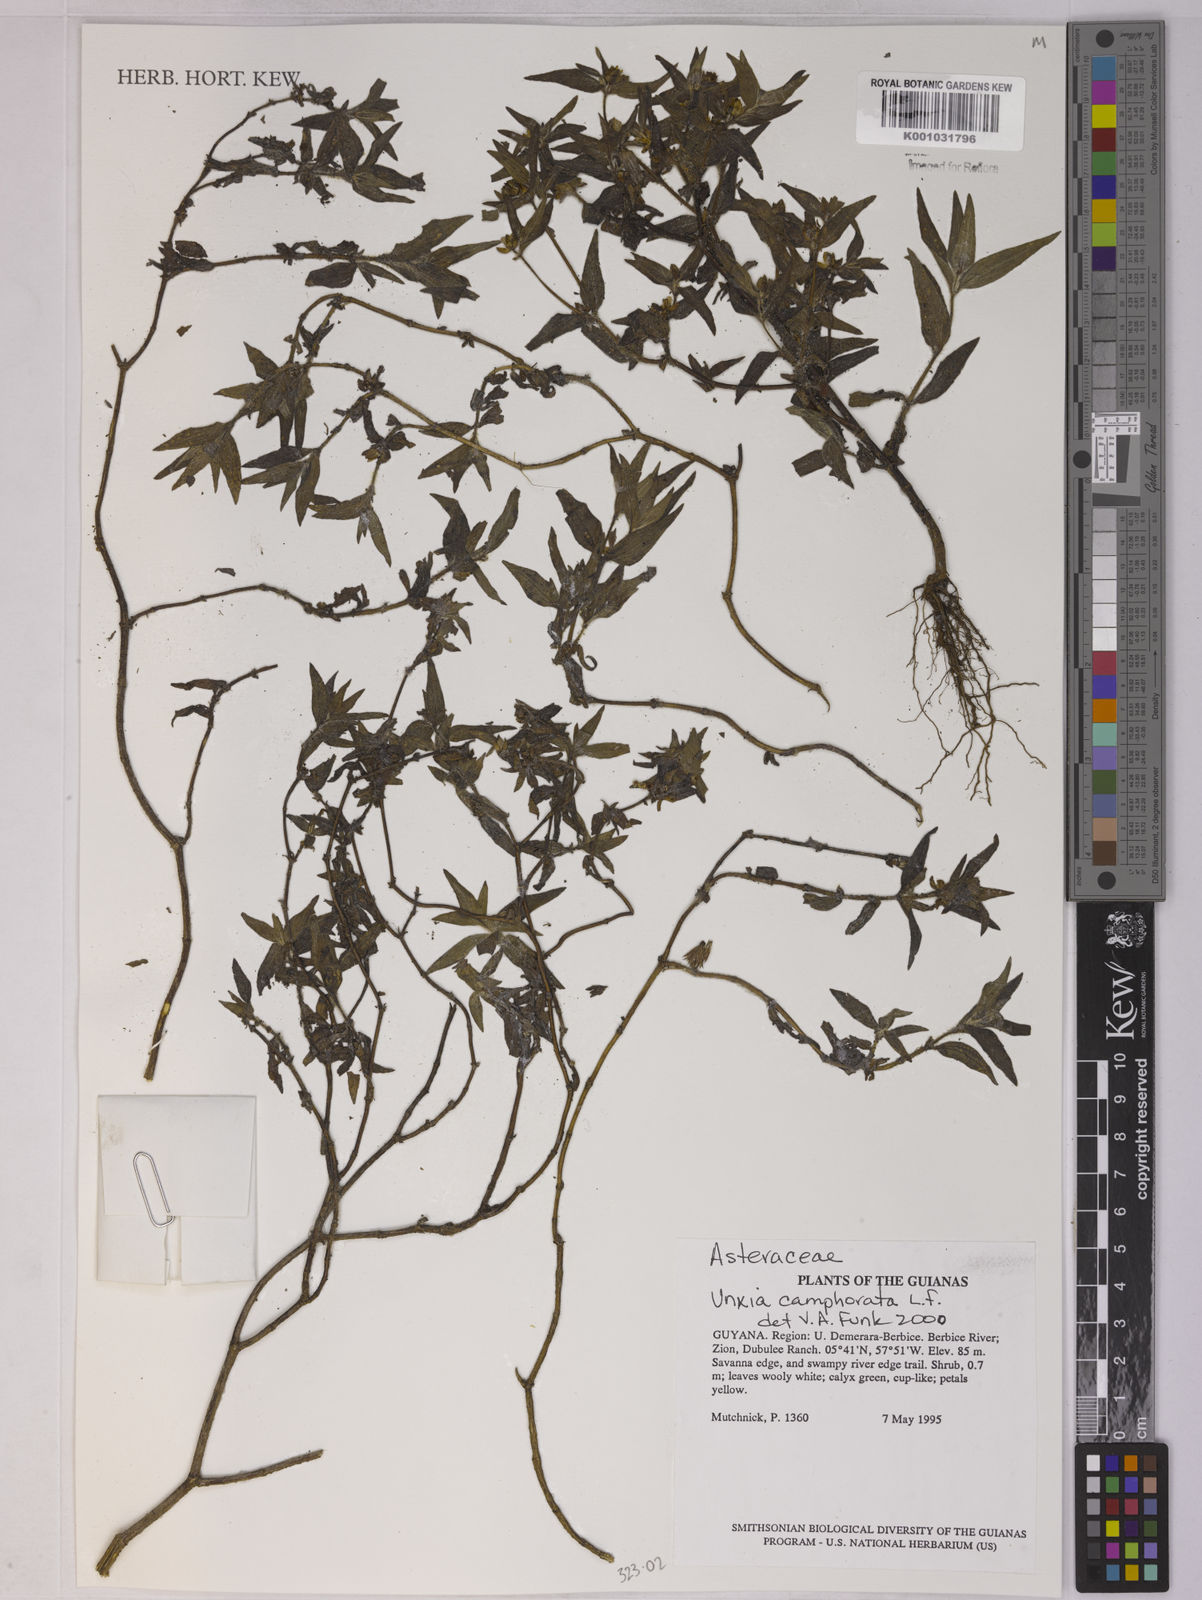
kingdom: Plantae
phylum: Tracheophyta
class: Magnoliopsida
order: Asterales
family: Asteraceae
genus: Unxia
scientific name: Unxia camphorata
